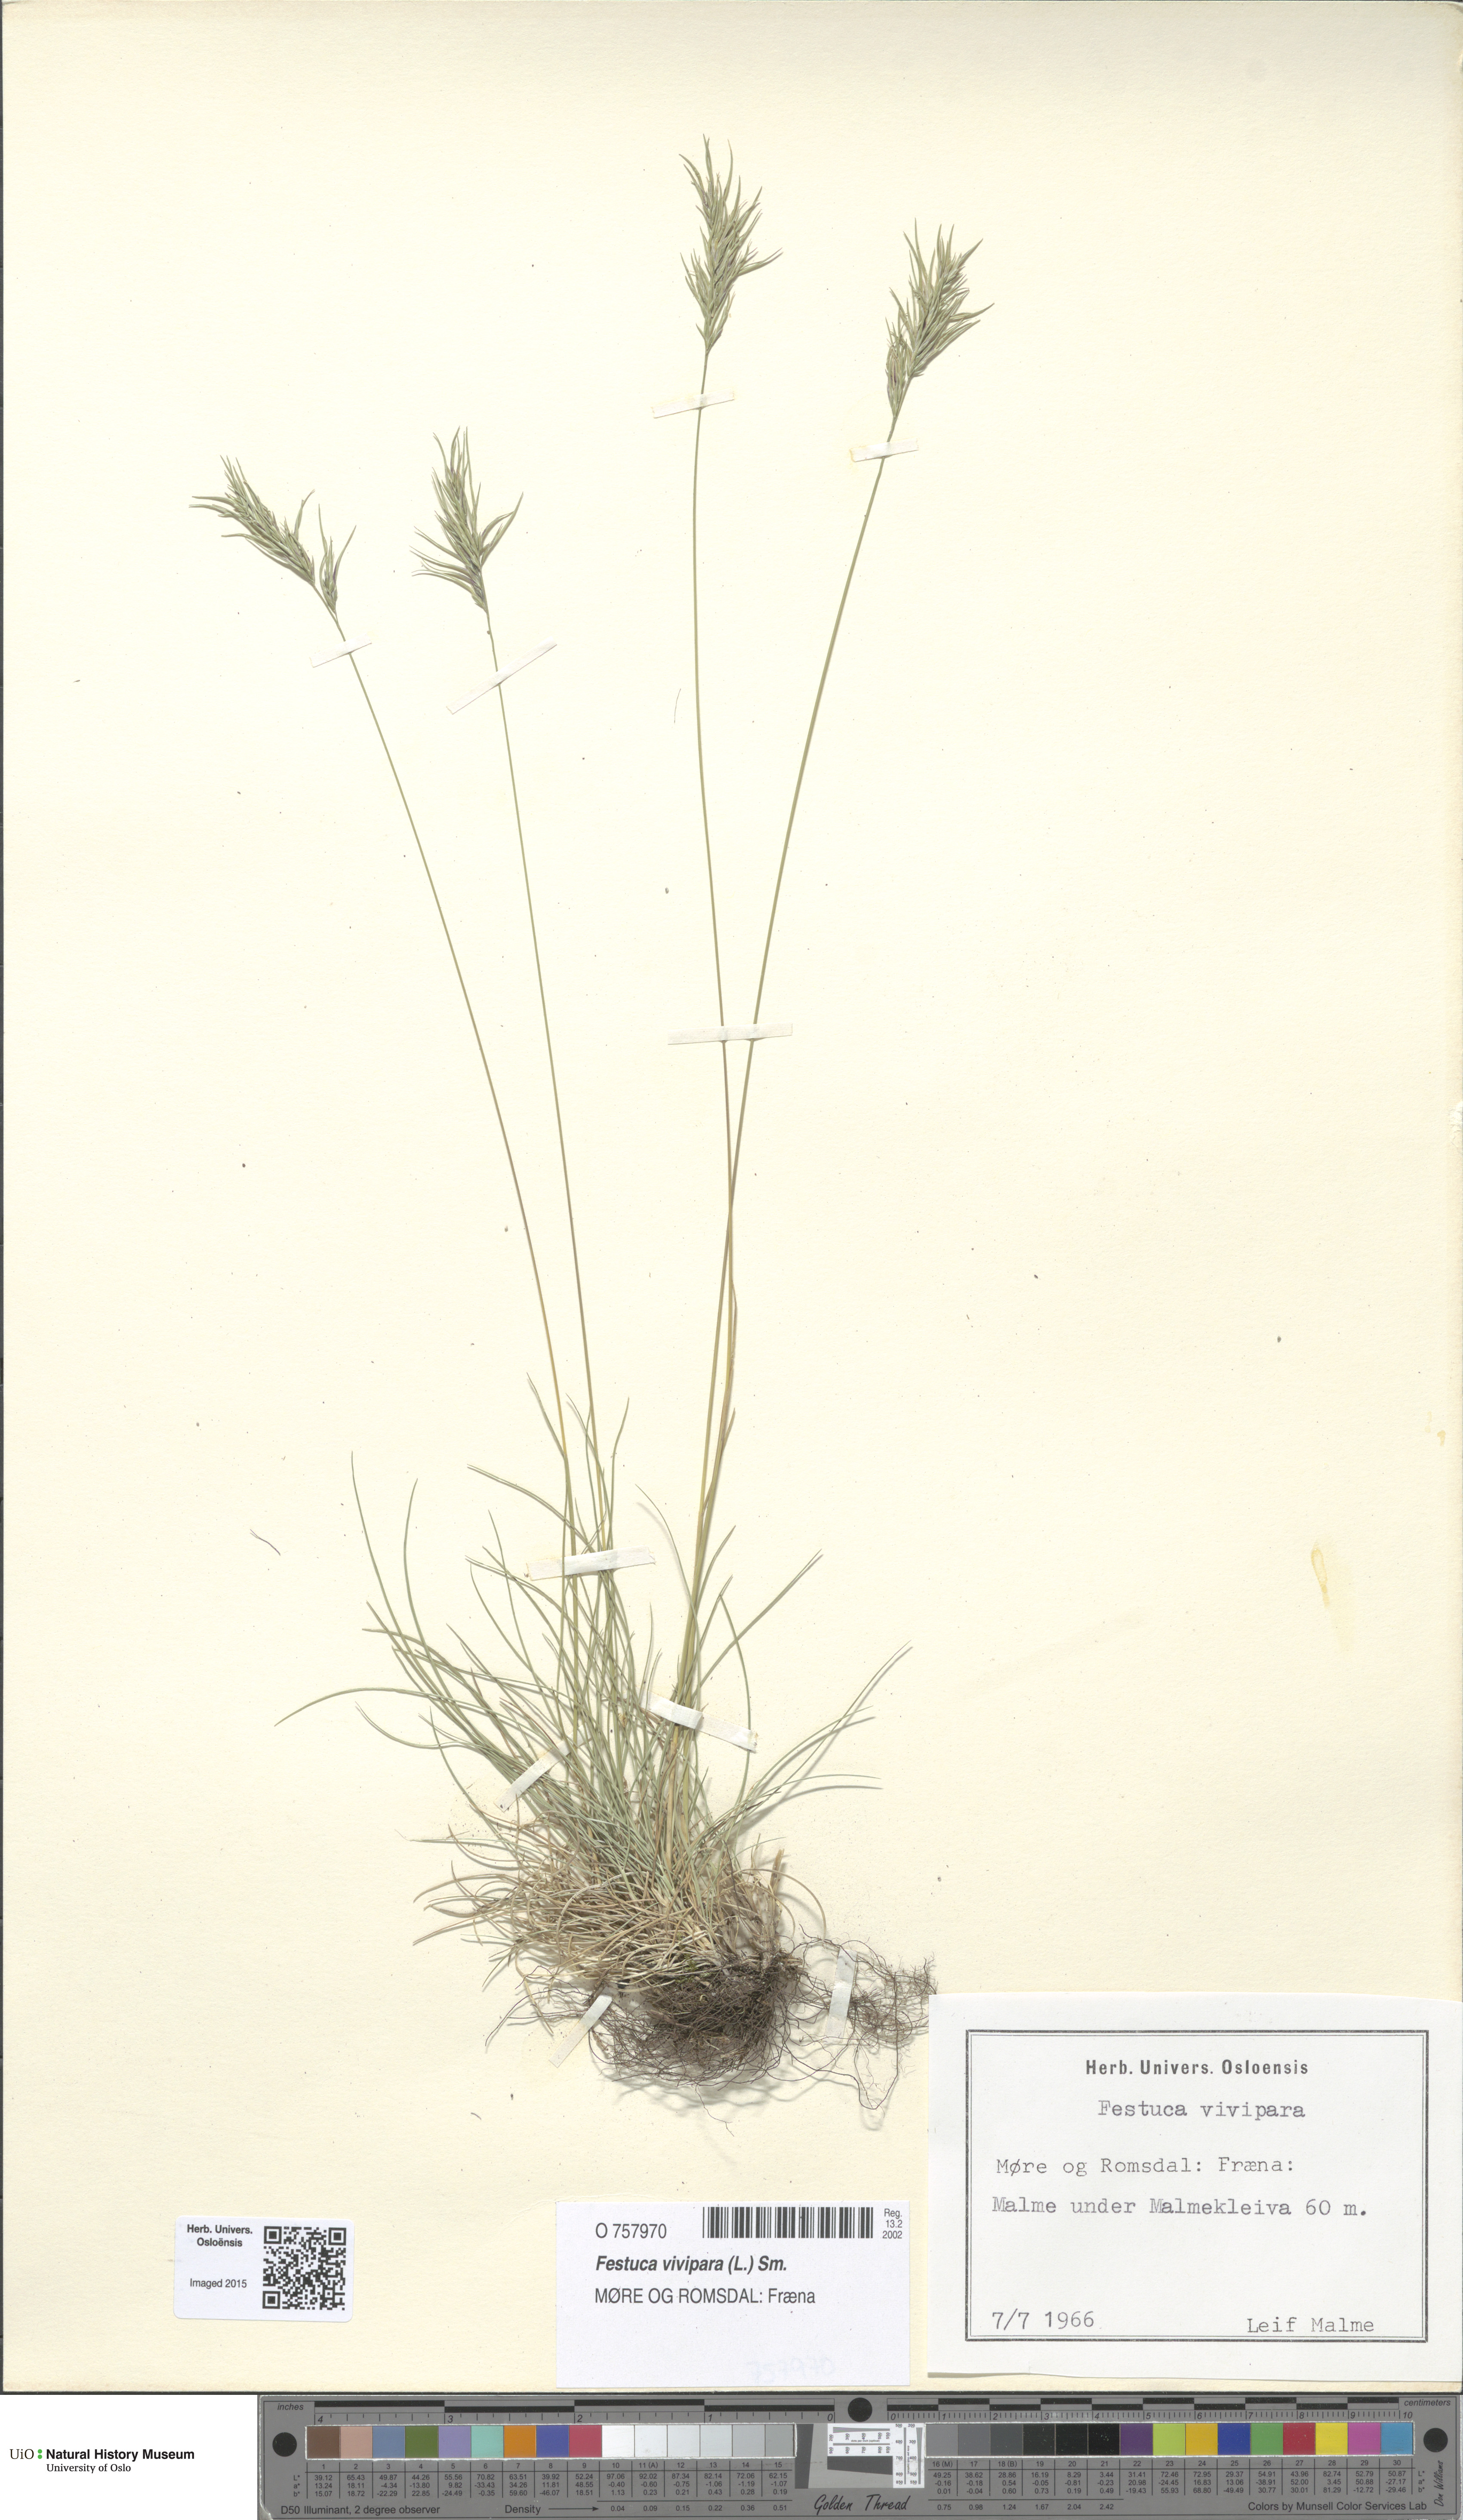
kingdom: Plantae
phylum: Tracheophyta
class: Liliopsida
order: Poales
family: Poaceae
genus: Festuca
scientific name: Festuca vivipara
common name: Viviparous sheep's-fescue
